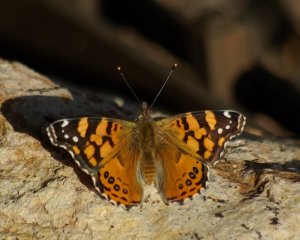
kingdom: Animalia
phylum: Arthropoda
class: Insecta
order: Lepidoptera
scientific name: Lepidoptera
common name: Butterflies
